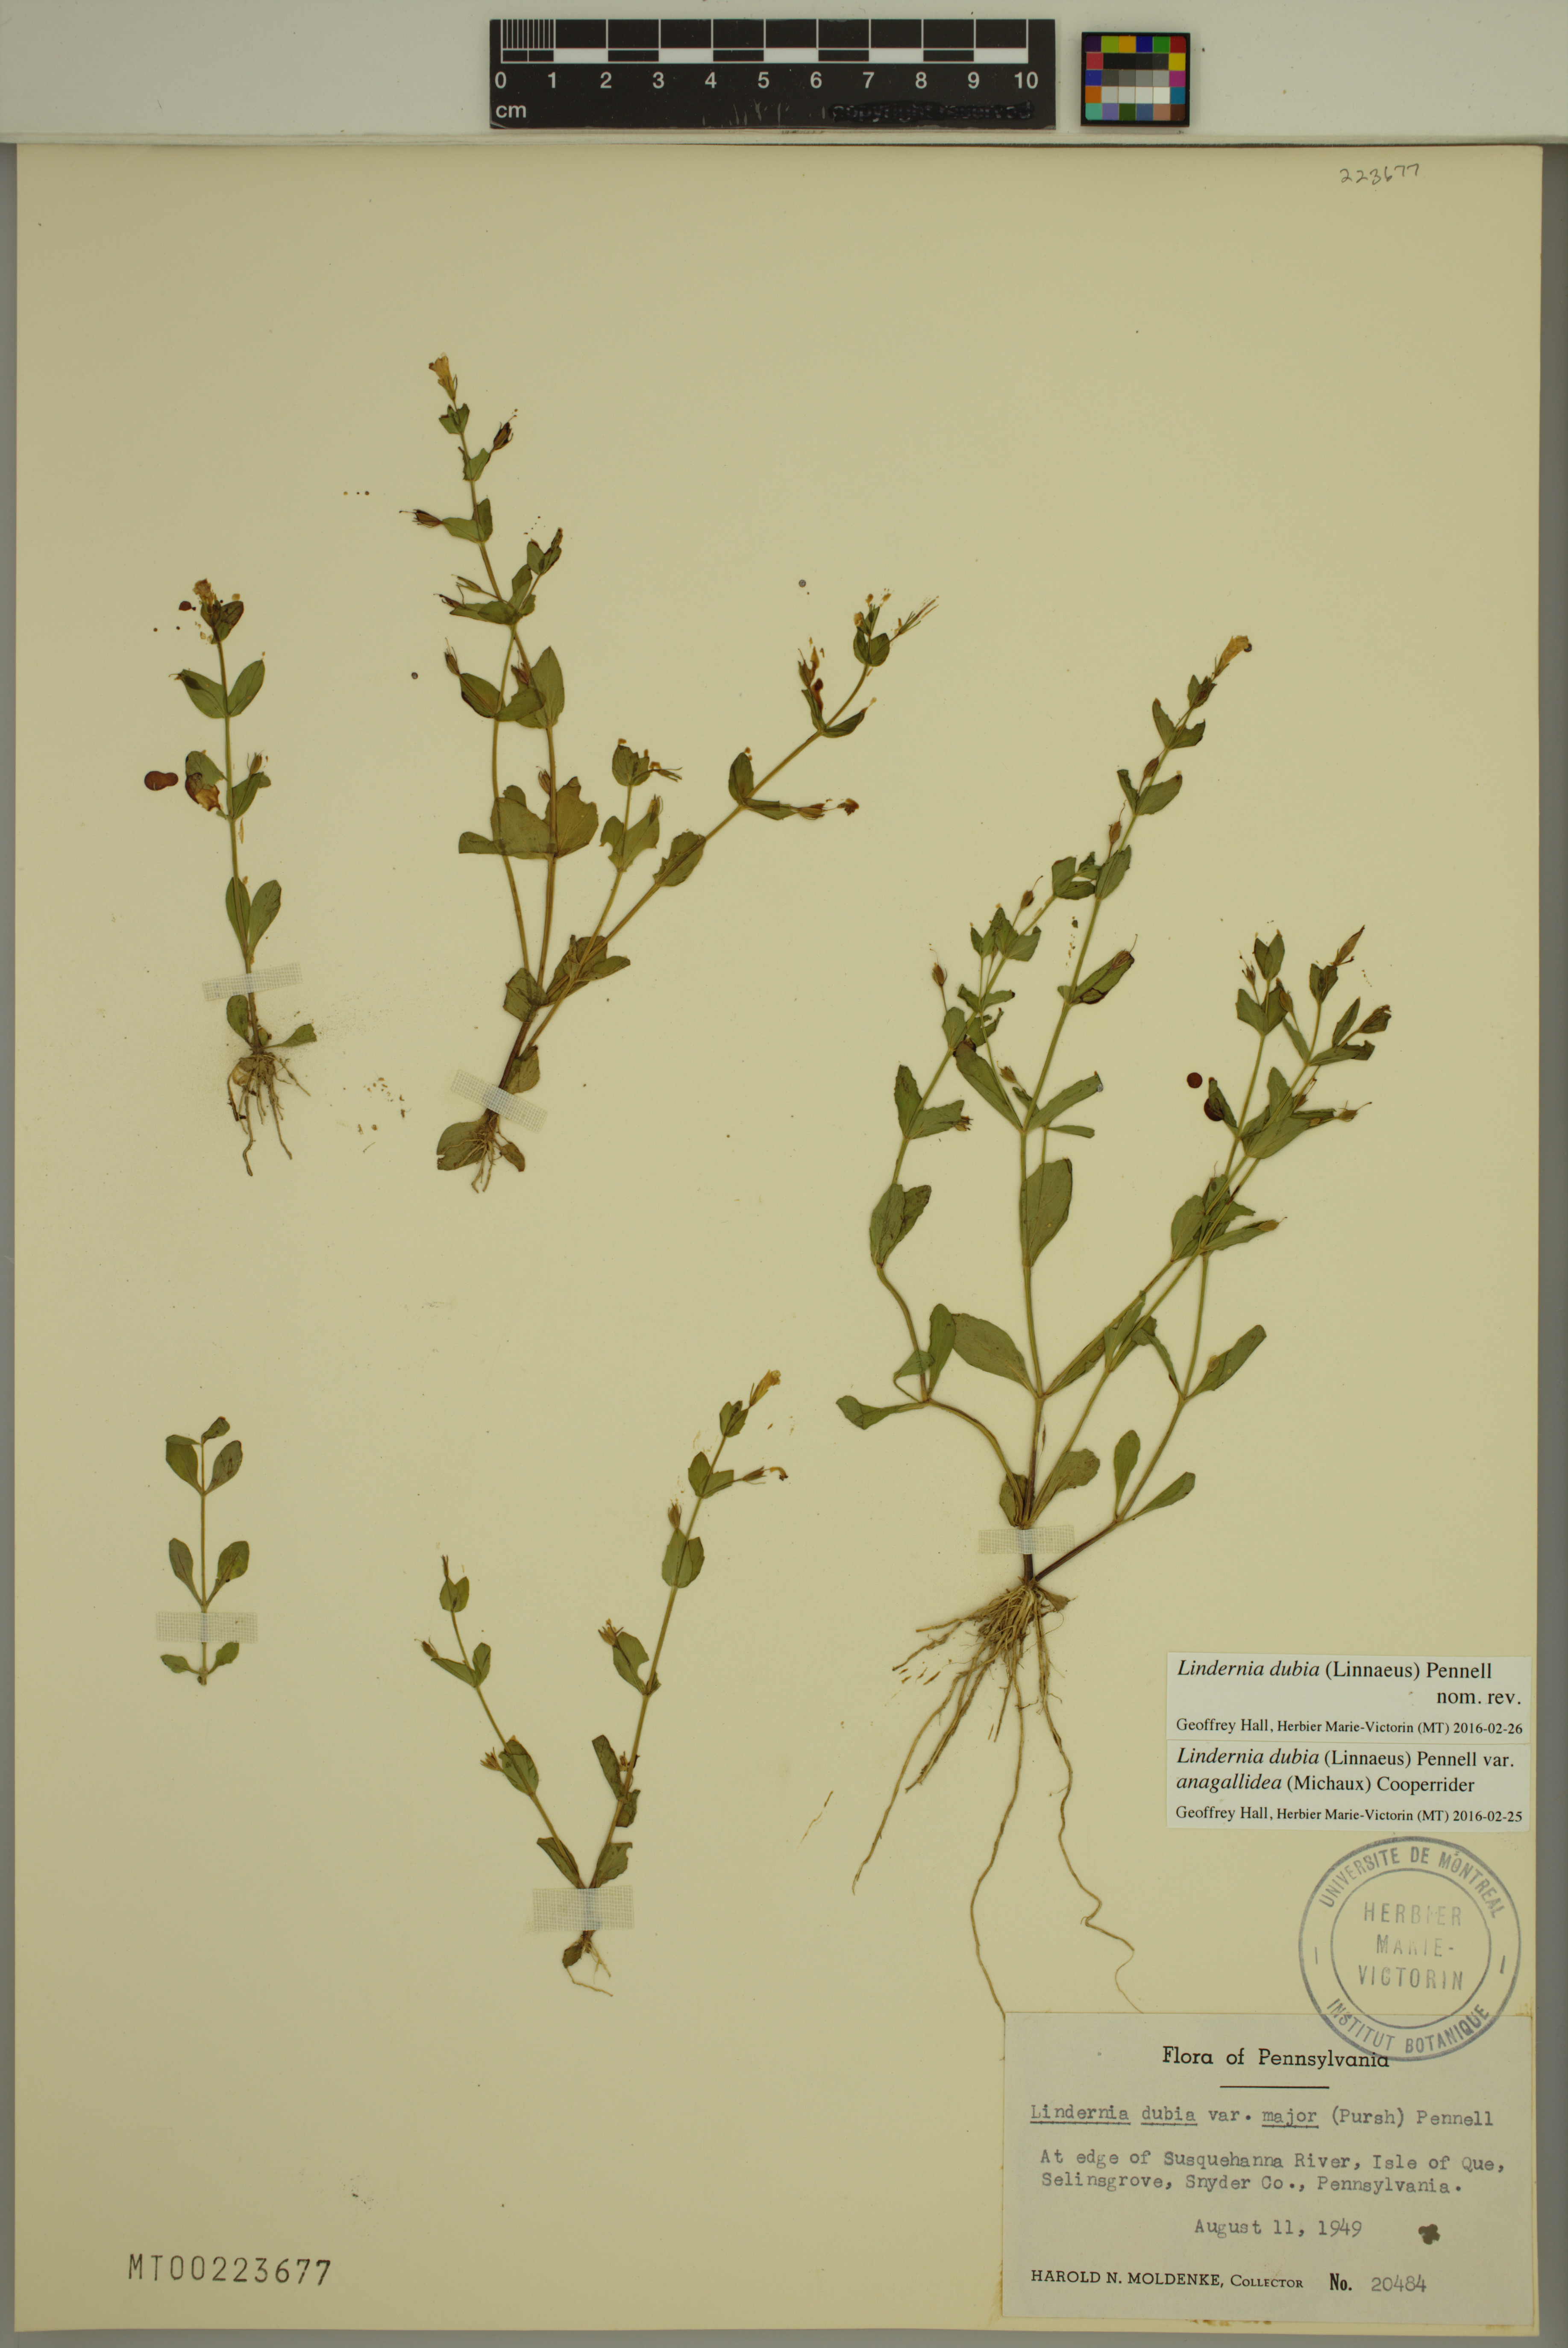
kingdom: Plantae
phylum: Tracheophyta
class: Magnoliopsida
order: Lamiales
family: Linderniaceae
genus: Lindernia
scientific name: Lindernia dubia
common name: Annual false pimpernel
